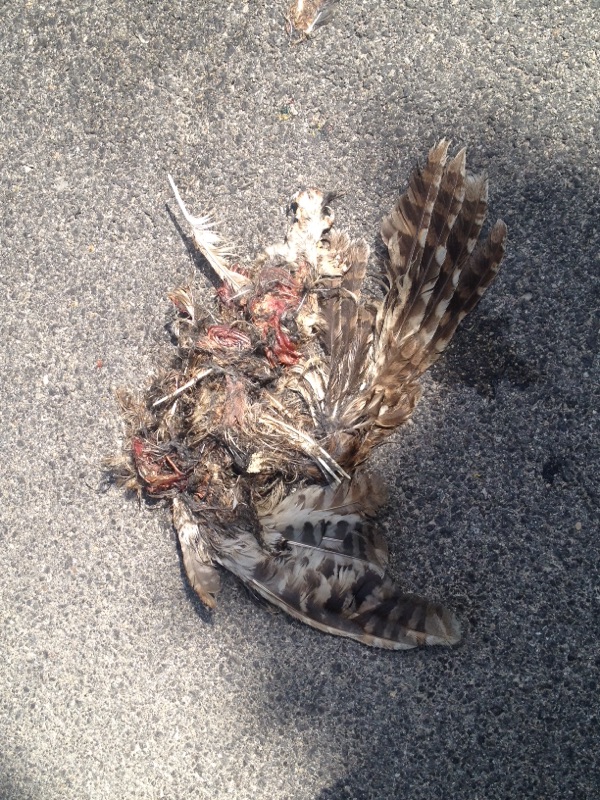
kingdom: Animalia
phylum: Chordata
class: Aves
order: Strigiformes
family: Strigidae
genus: Strix
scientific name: Strix aluco
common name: Tawny owl
